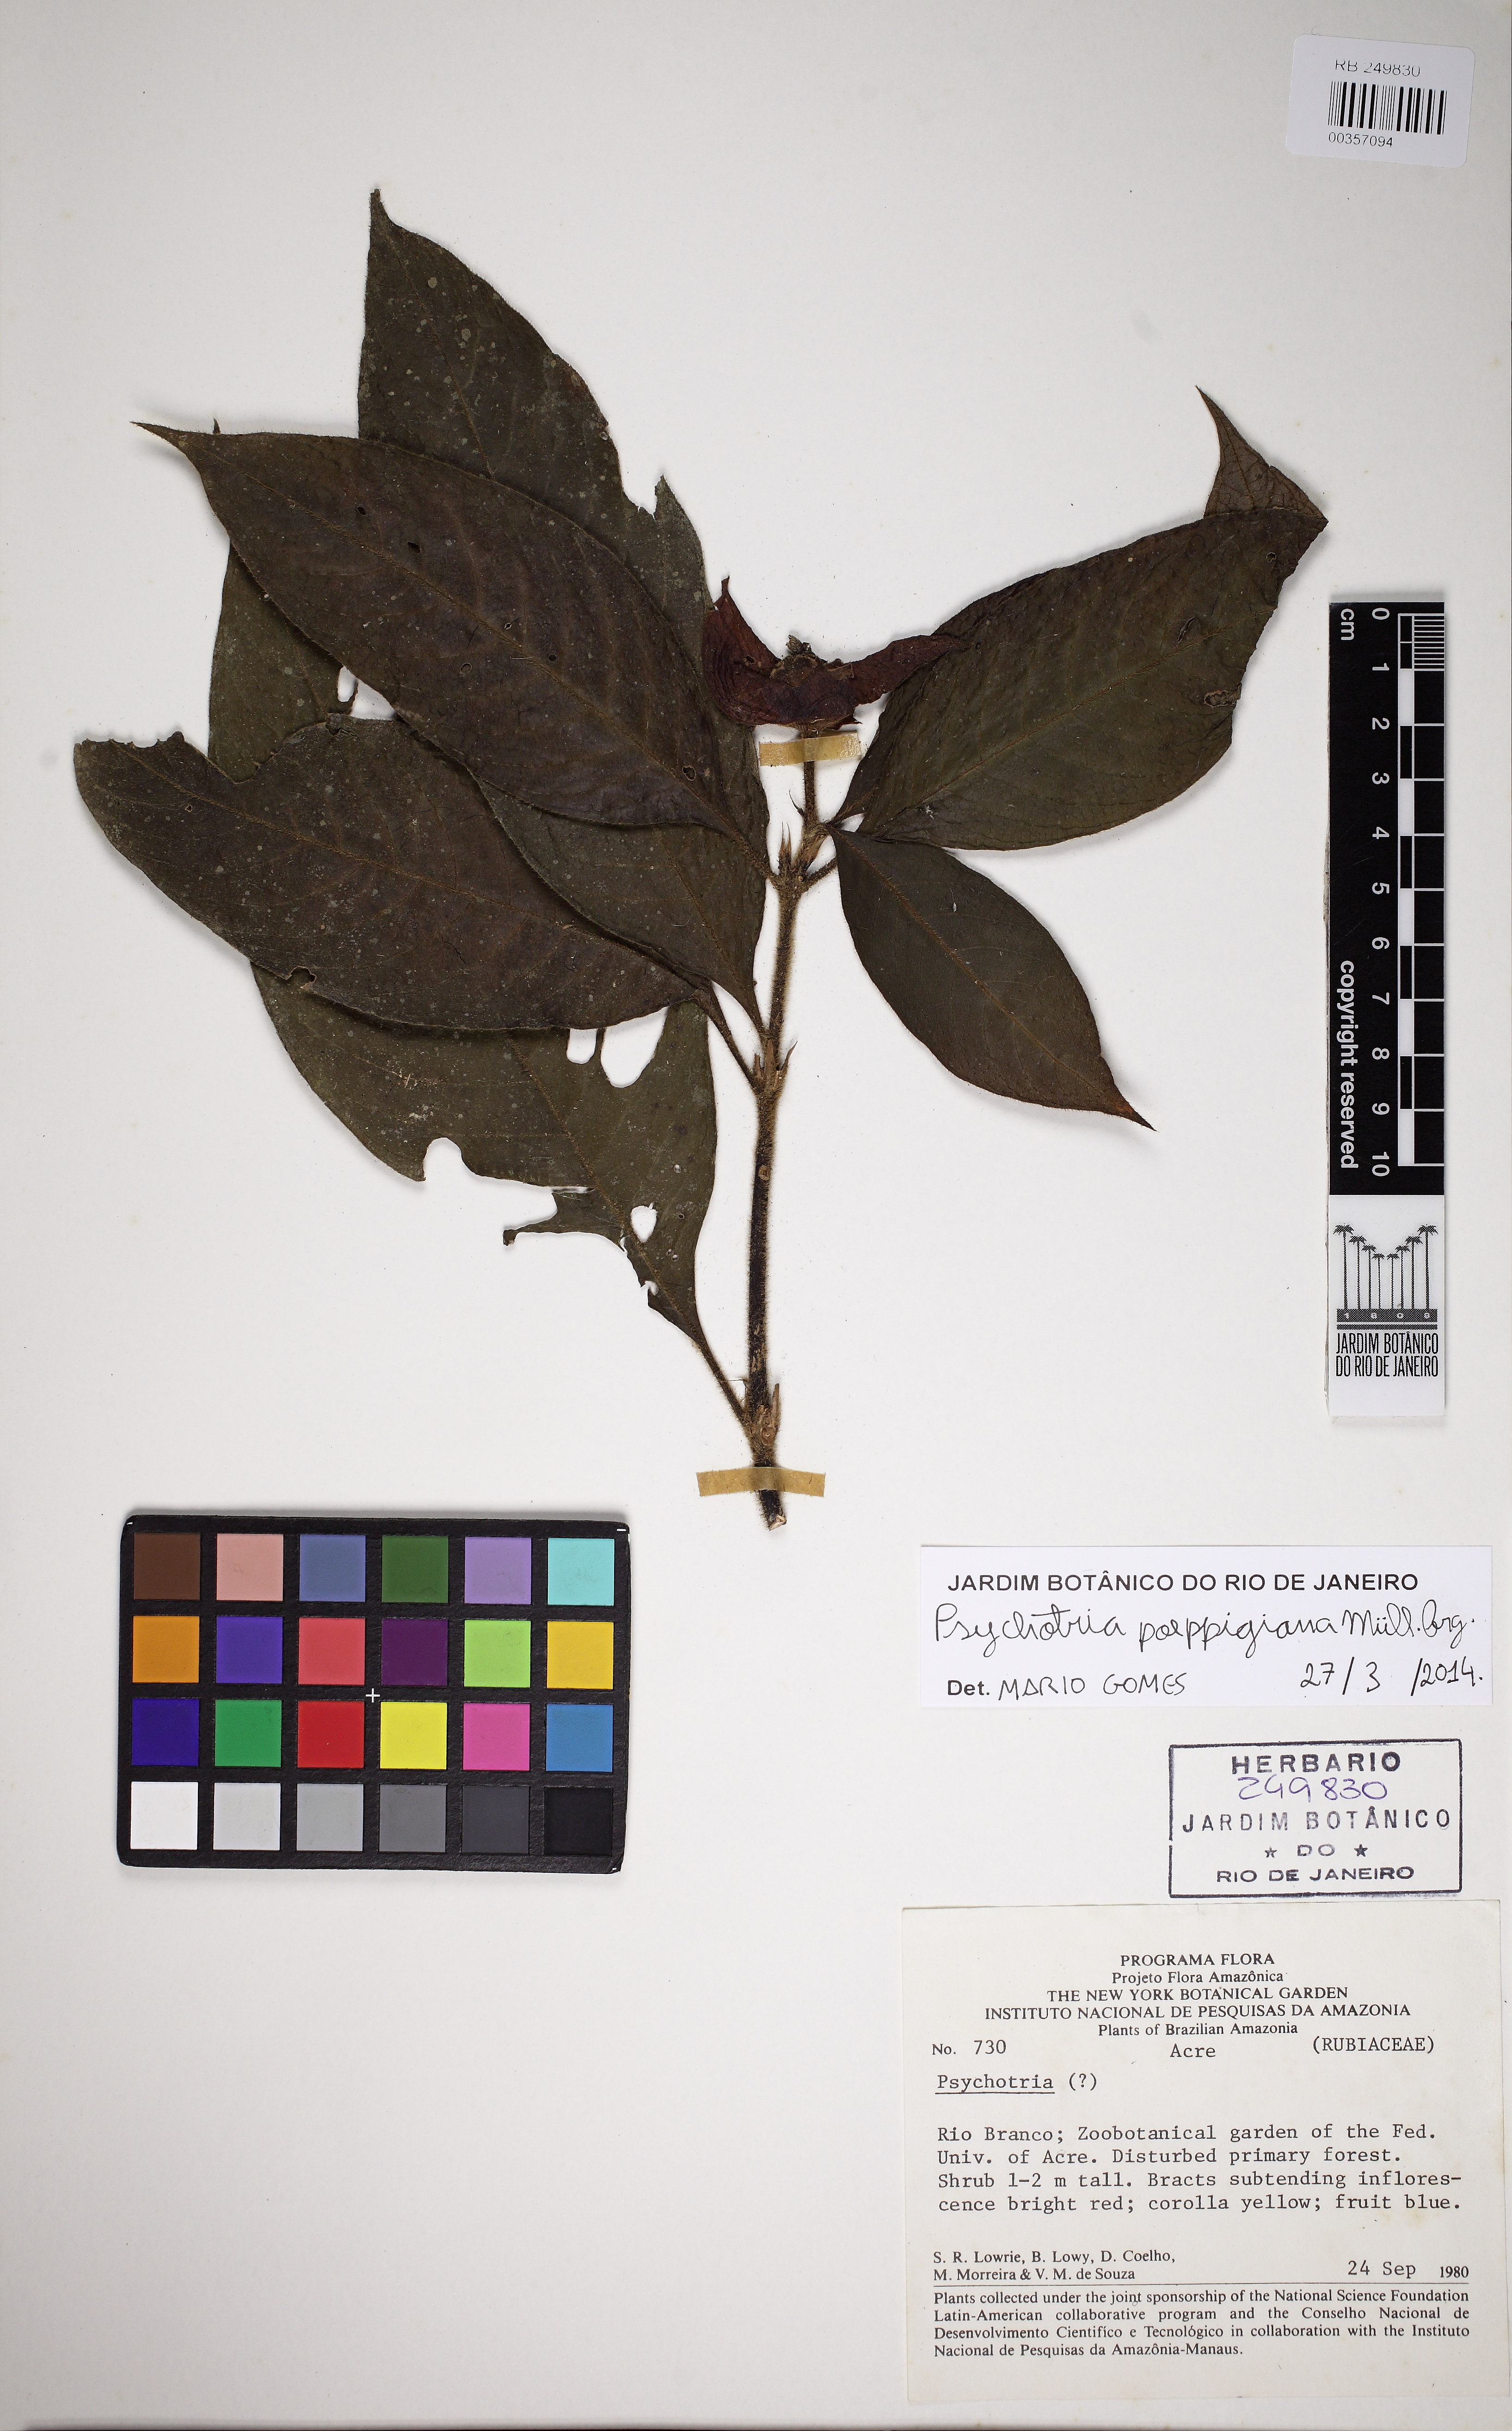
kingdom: Plantae
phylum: Tracheophyta
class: Magnoliopsida
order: Gentianales
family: Rubiaceae
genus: Palicourea
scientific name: Palicourea tomentosa
